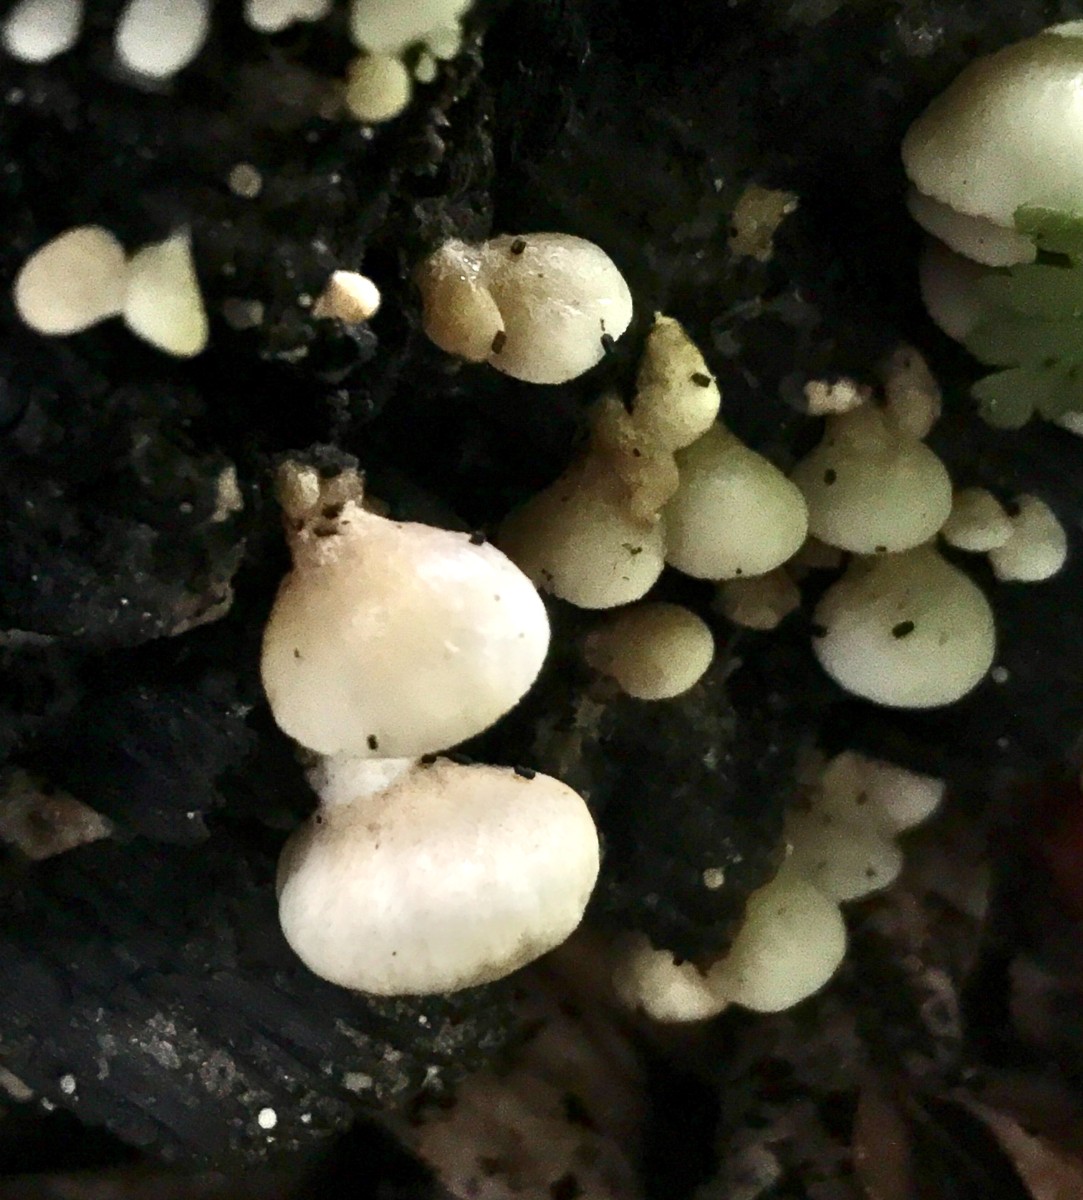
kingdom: Fungi
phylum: Basidiomycota
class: Agaricomycetes
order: Agaricales
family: Crepidotaceae
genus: Crepidotus
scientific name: Crepidotus calolepis
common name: småskællet muslingesvamp
